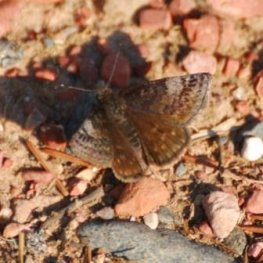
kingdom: Animalia
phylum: Arthropoda
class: Insecta
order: Lepidoptera
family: Hesperiidae
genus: Erynnis
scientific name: Erynnis icelus
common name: Dreamy Duskywing
